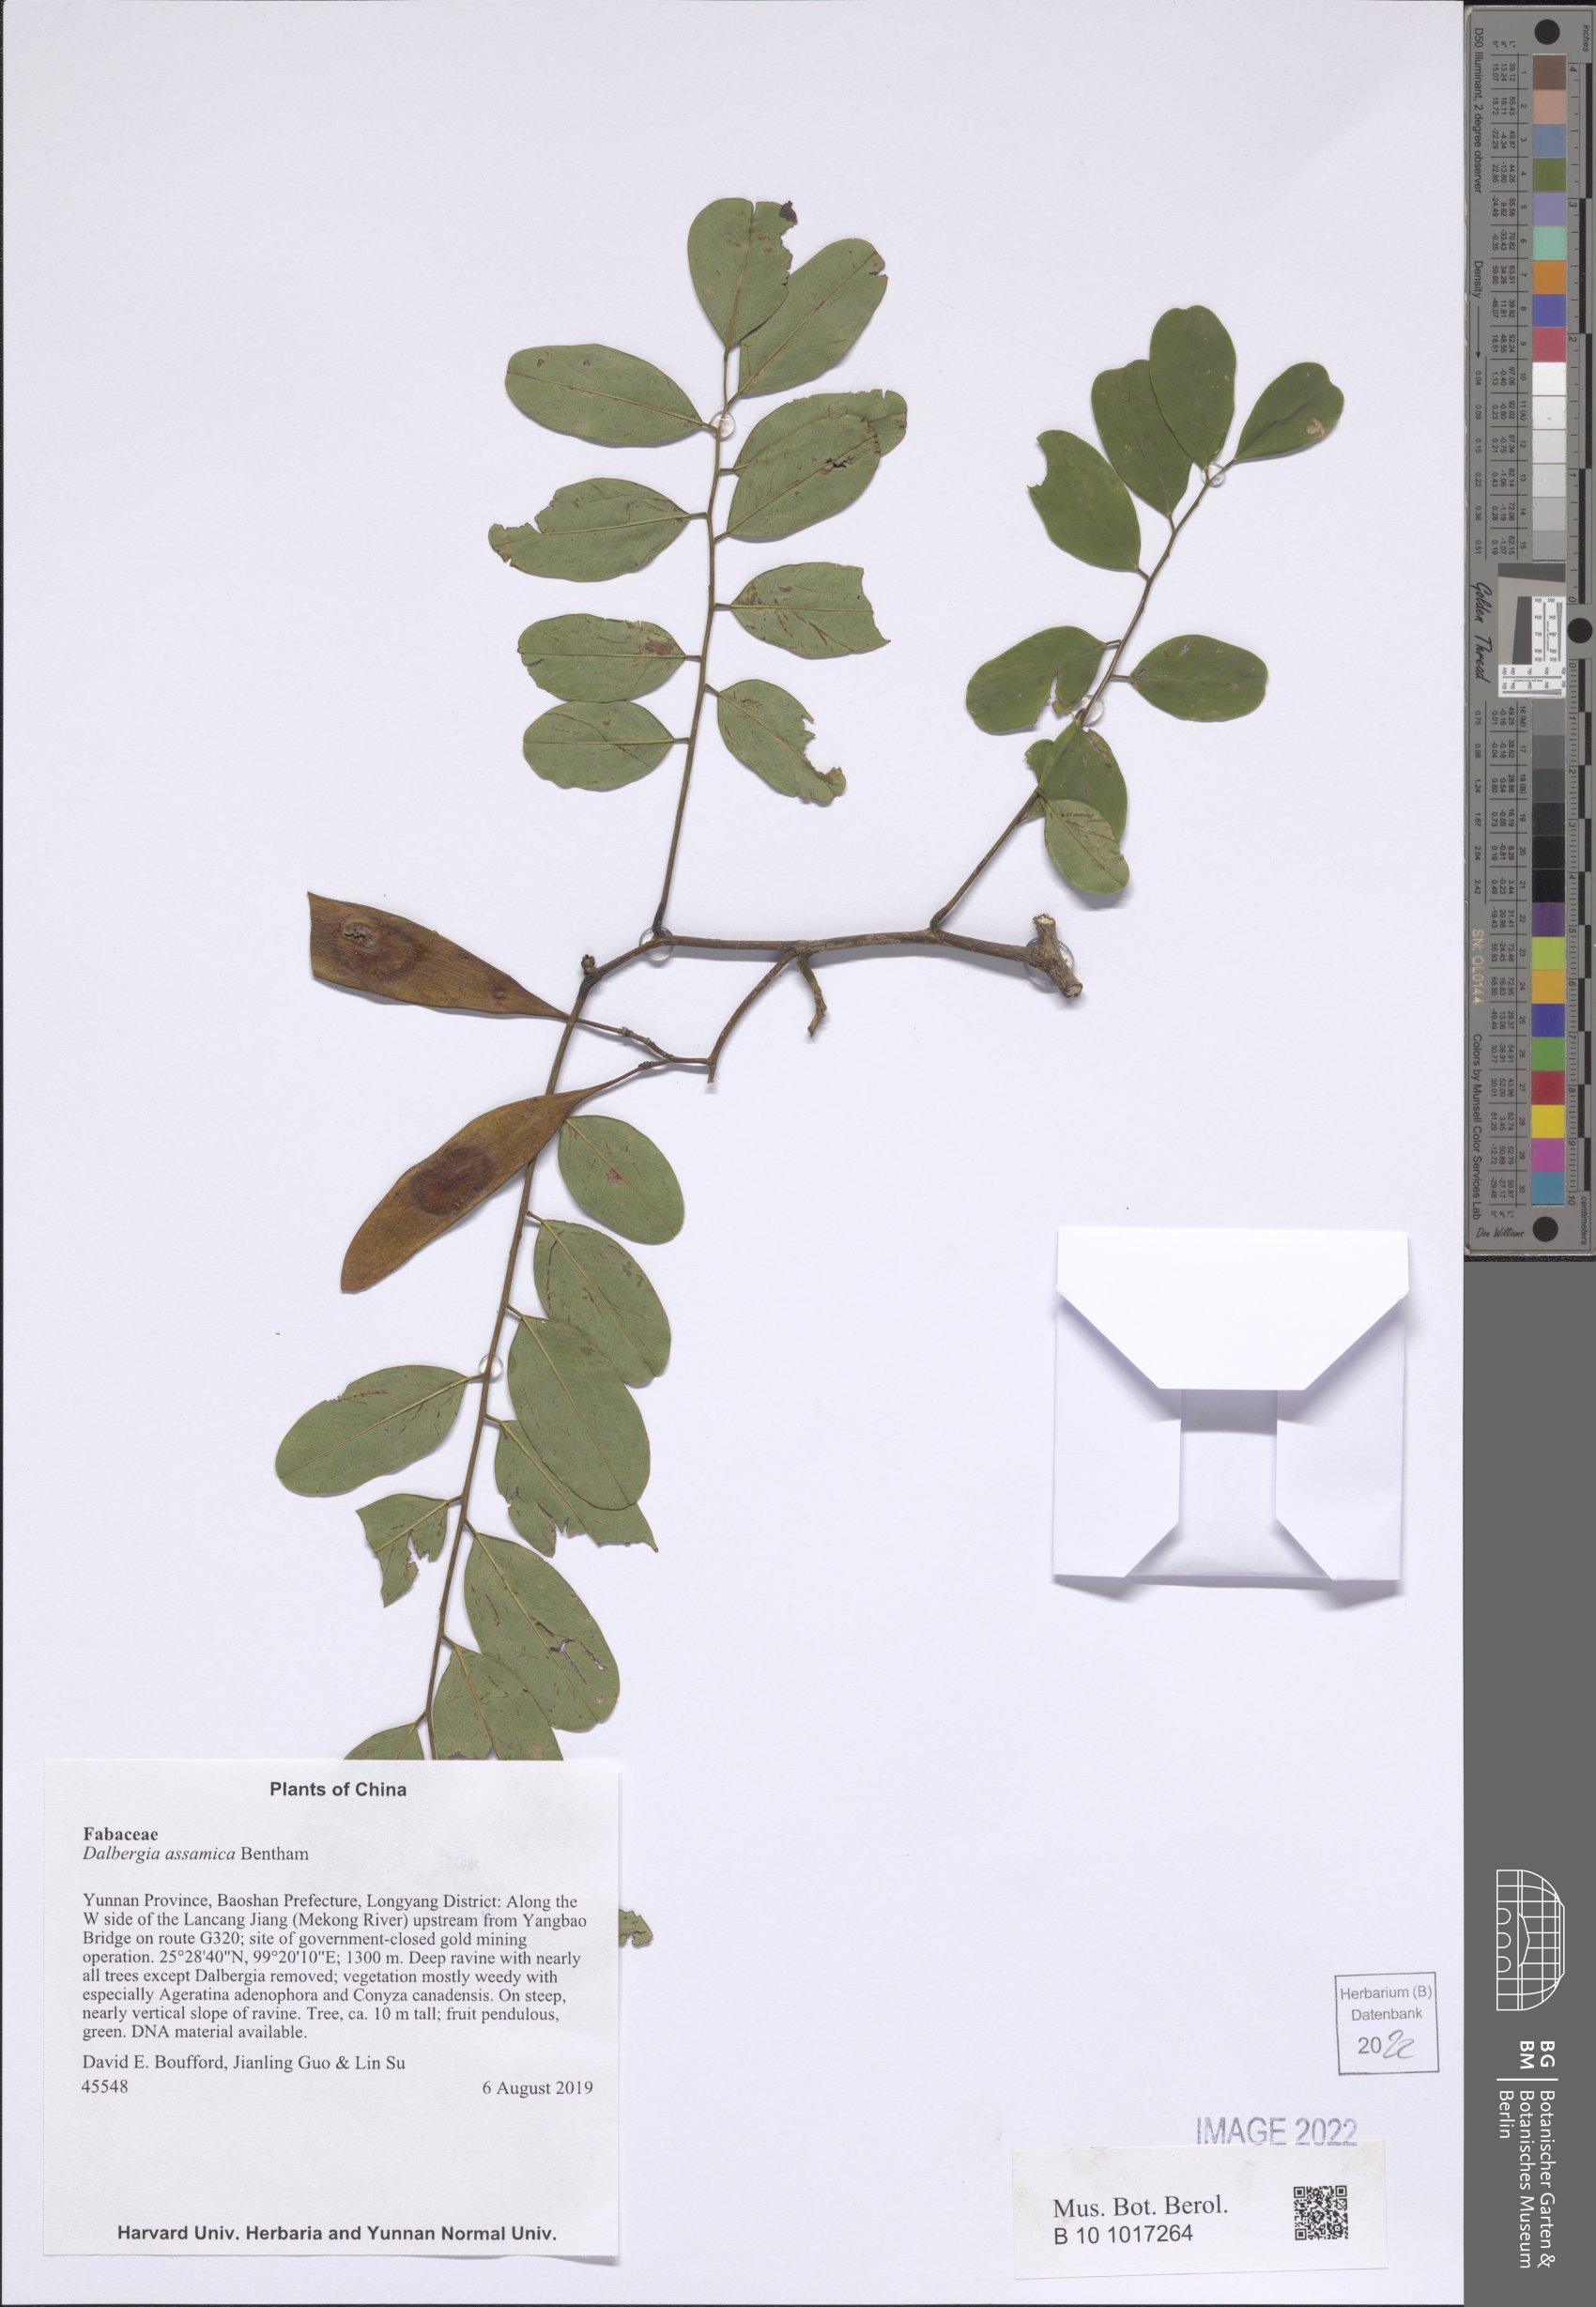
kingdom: Plantae
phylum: Tracheophyta
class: Magnoliopsida
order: Fabales
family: Fabaceae
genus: Dalbergia
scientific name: Dalbergia assamica
